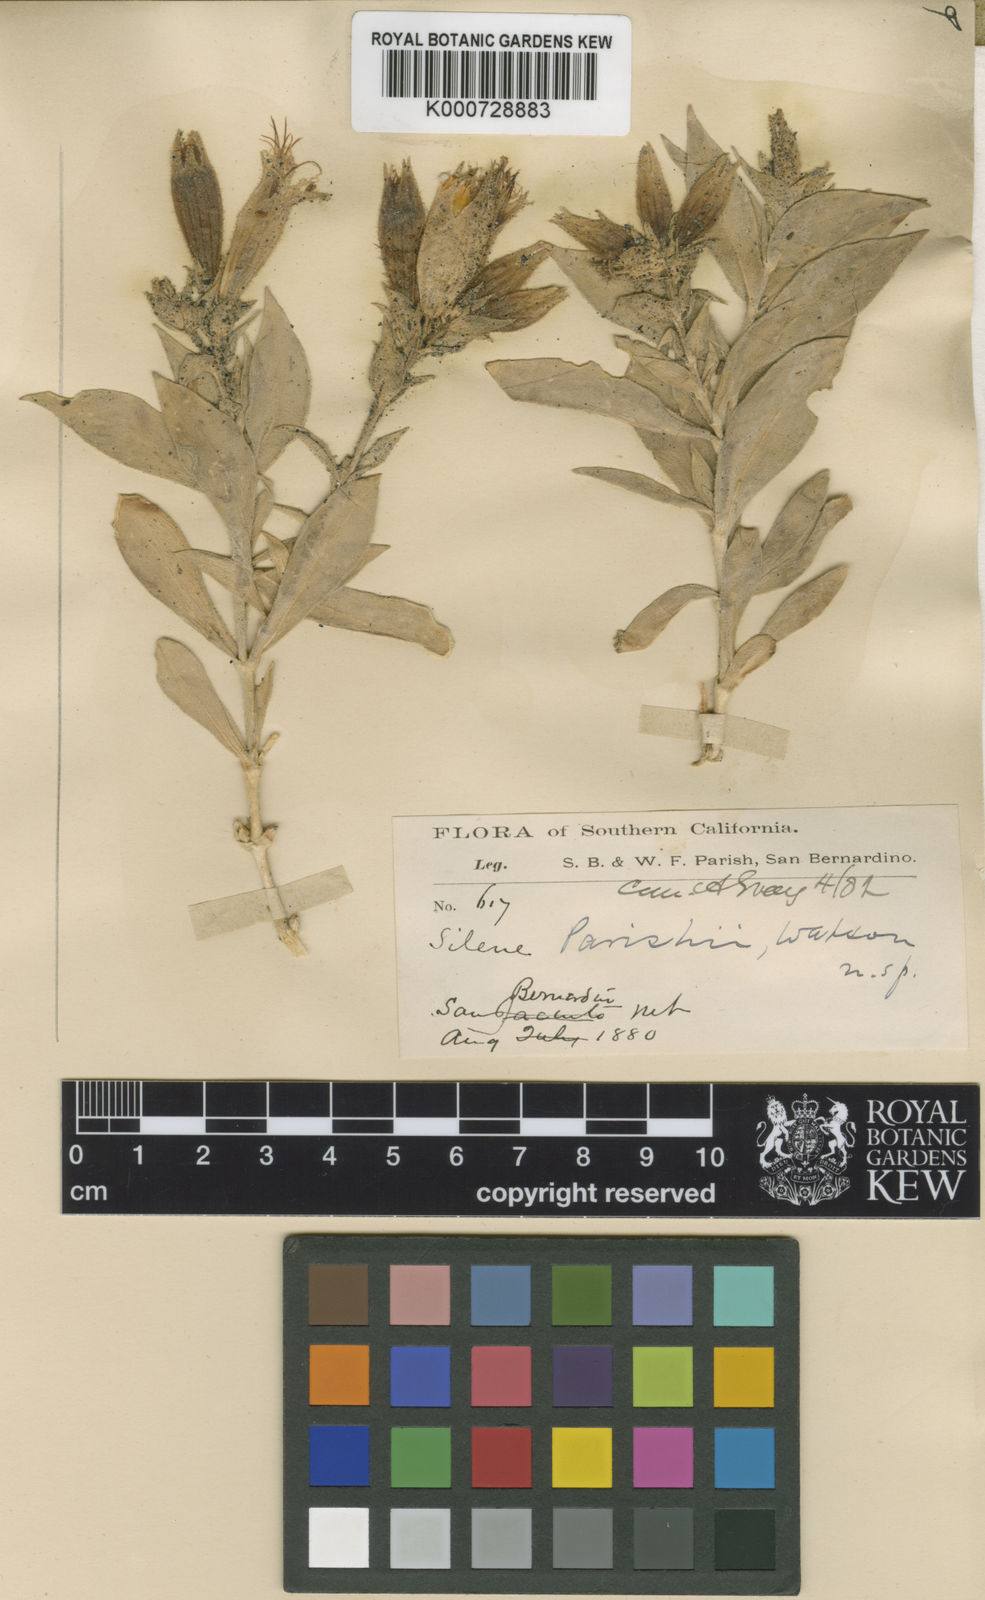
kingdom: Plantae
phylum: Tracheophyta
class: Magnoliopsida
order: Caryophyllales
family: Caryophyllaceae
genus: Silene
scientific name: Silene parishii
